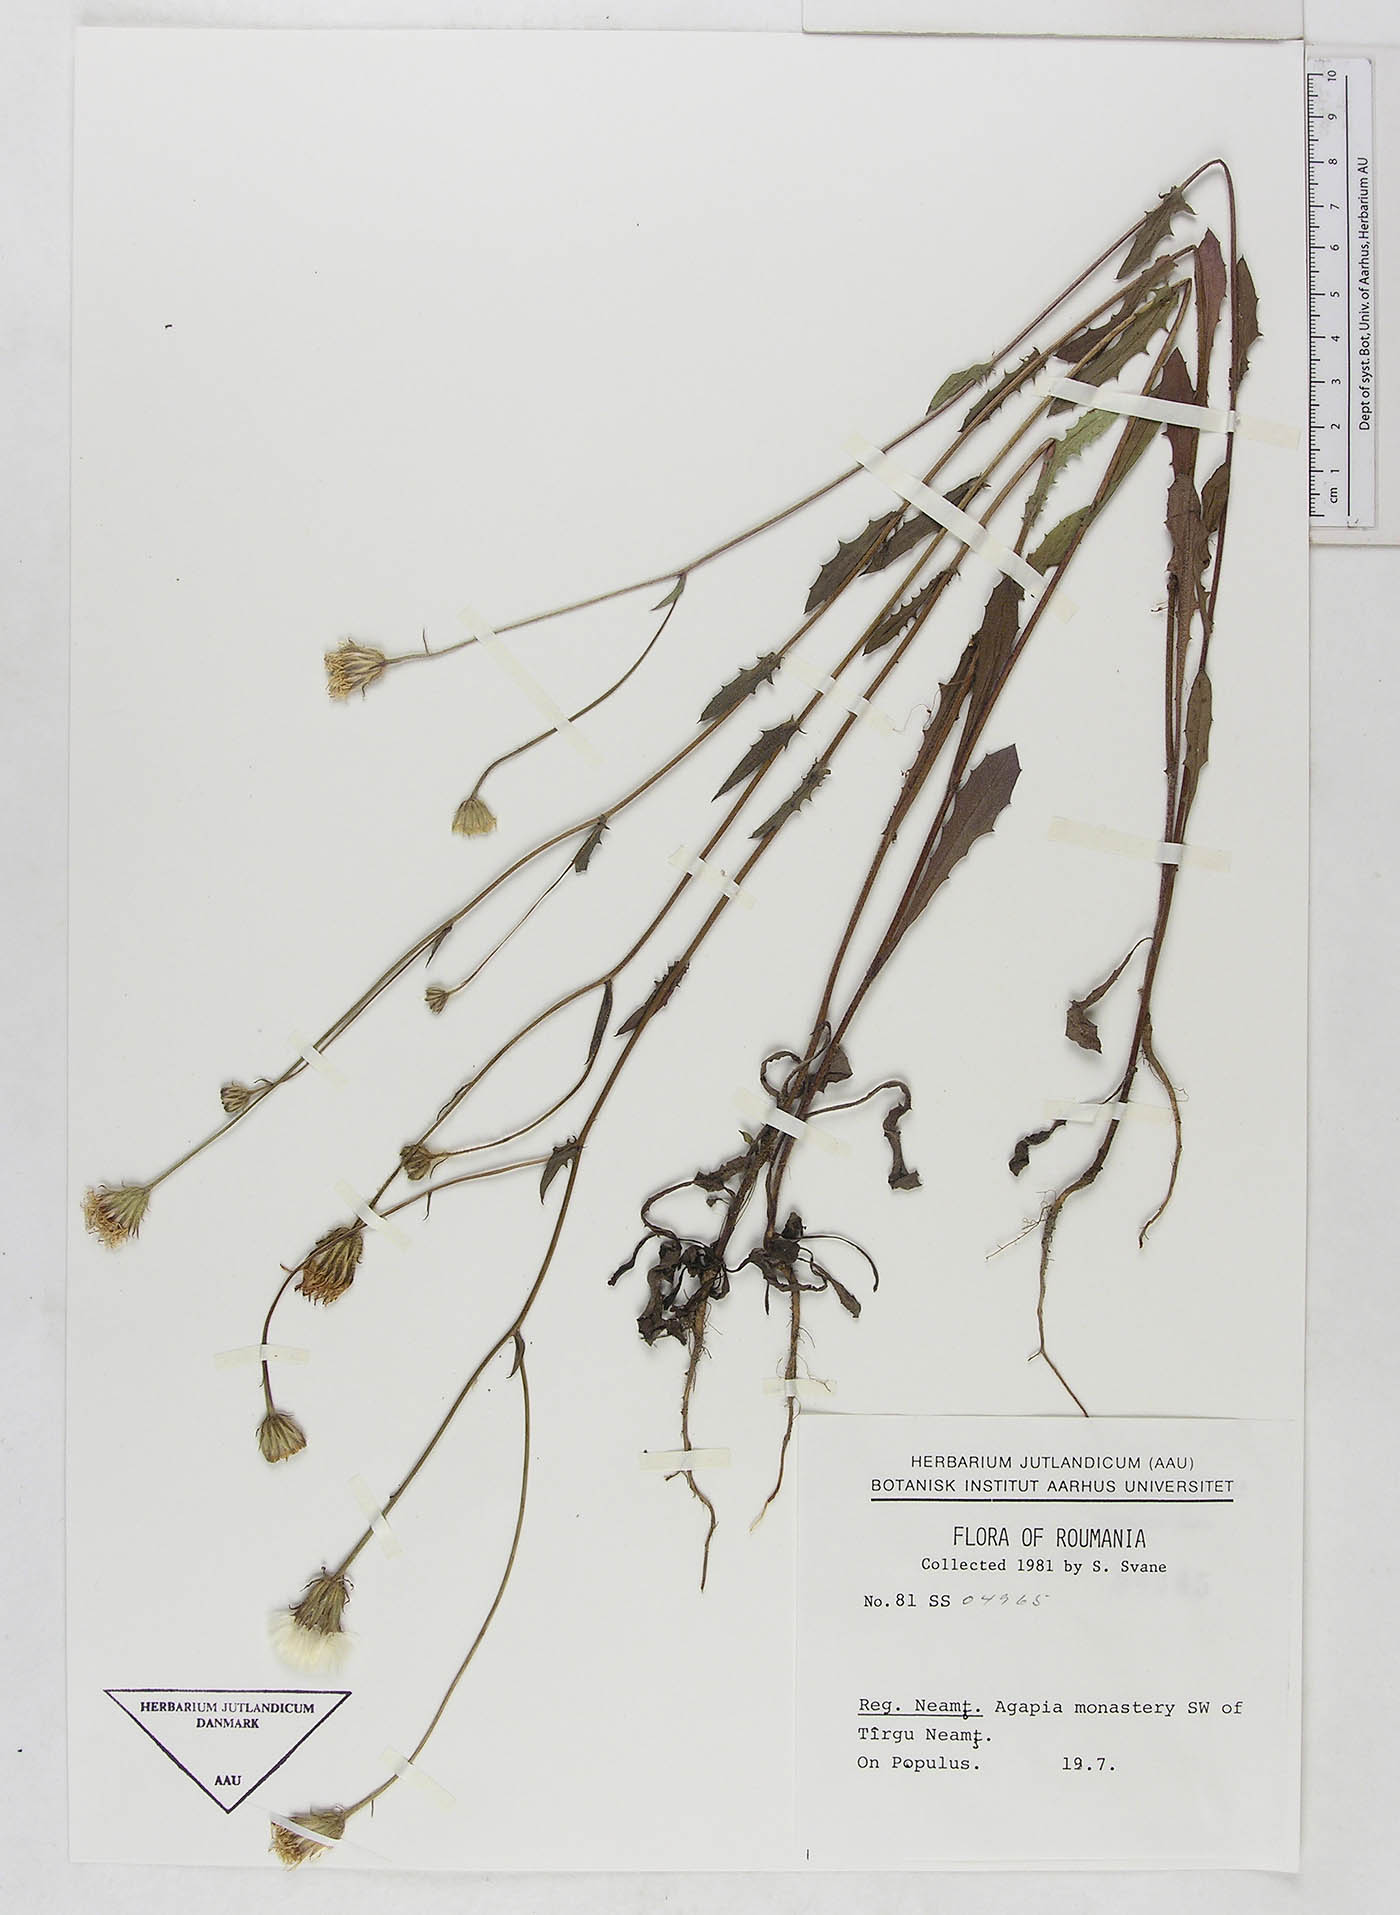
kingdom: Plantae
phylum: Tracheophyta
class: Magnoliopsida
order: Asterales
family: Asteraceae
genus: Crepis
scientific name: Crepis
